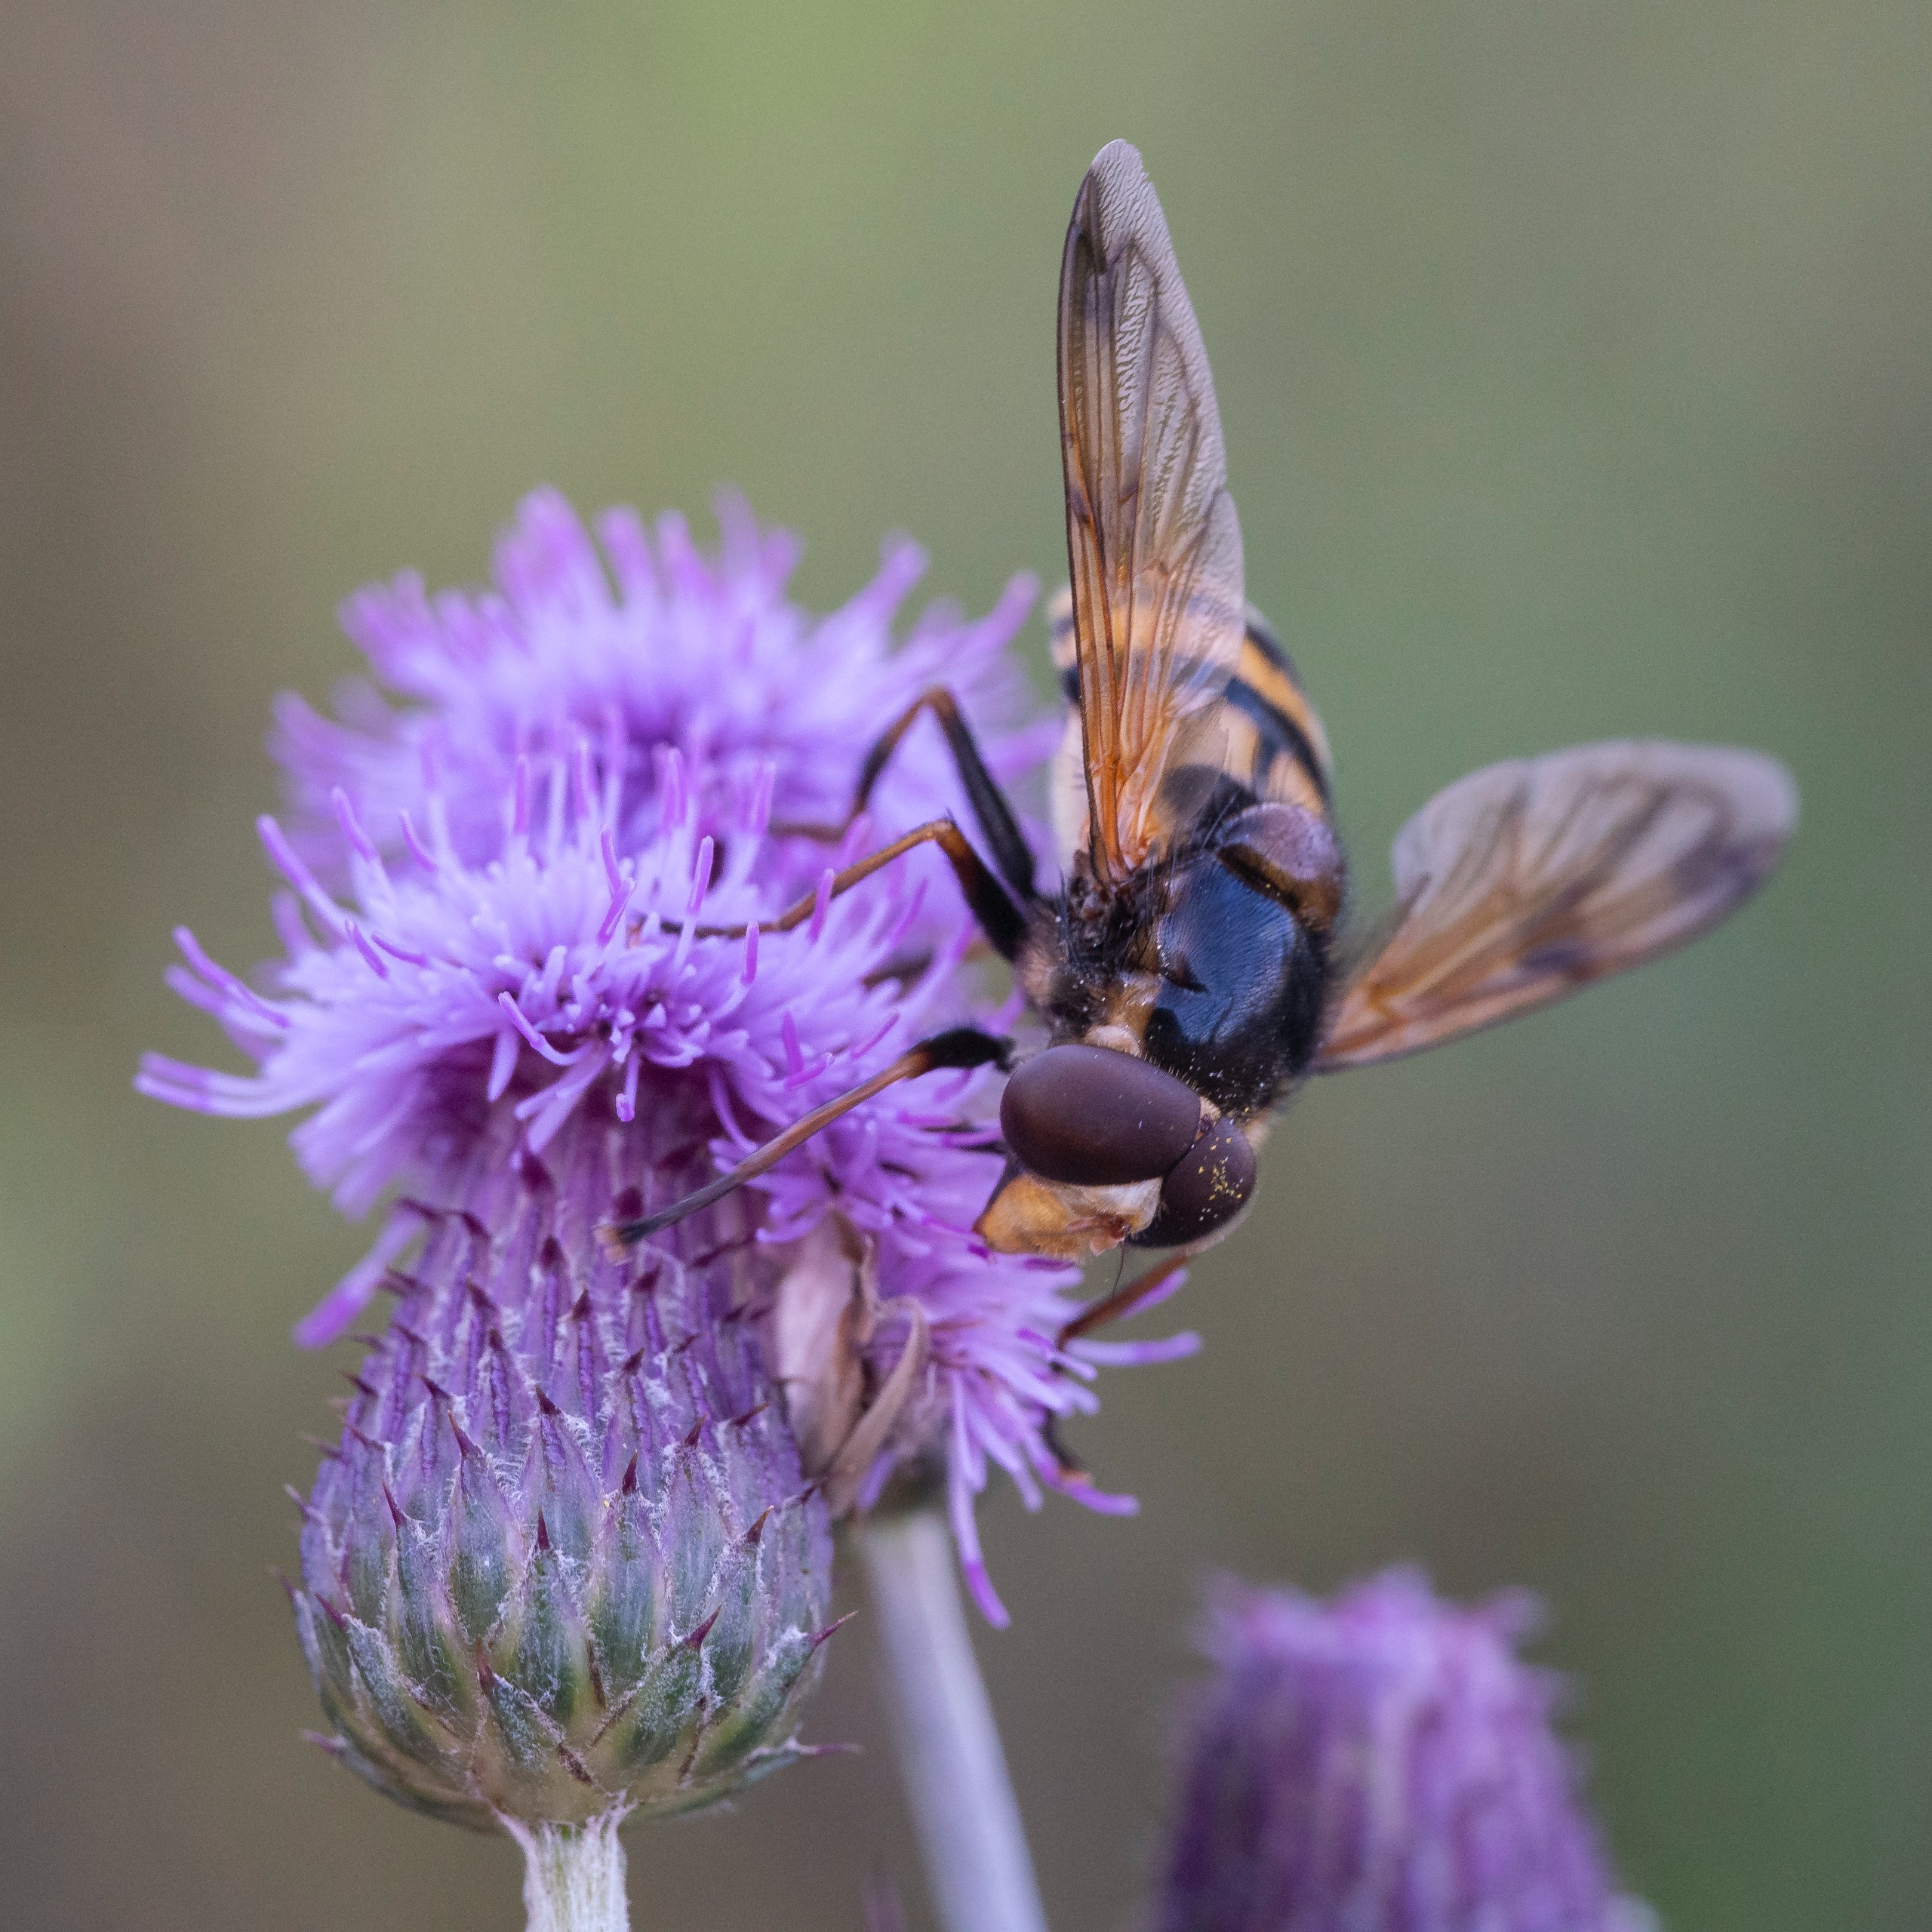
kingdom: Animalia
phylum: Arthropoda
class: Insecta
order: Diptera
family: Syrphidae
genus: Volucella
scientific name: Volucella inanis
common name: Gul humlesvirreflue
